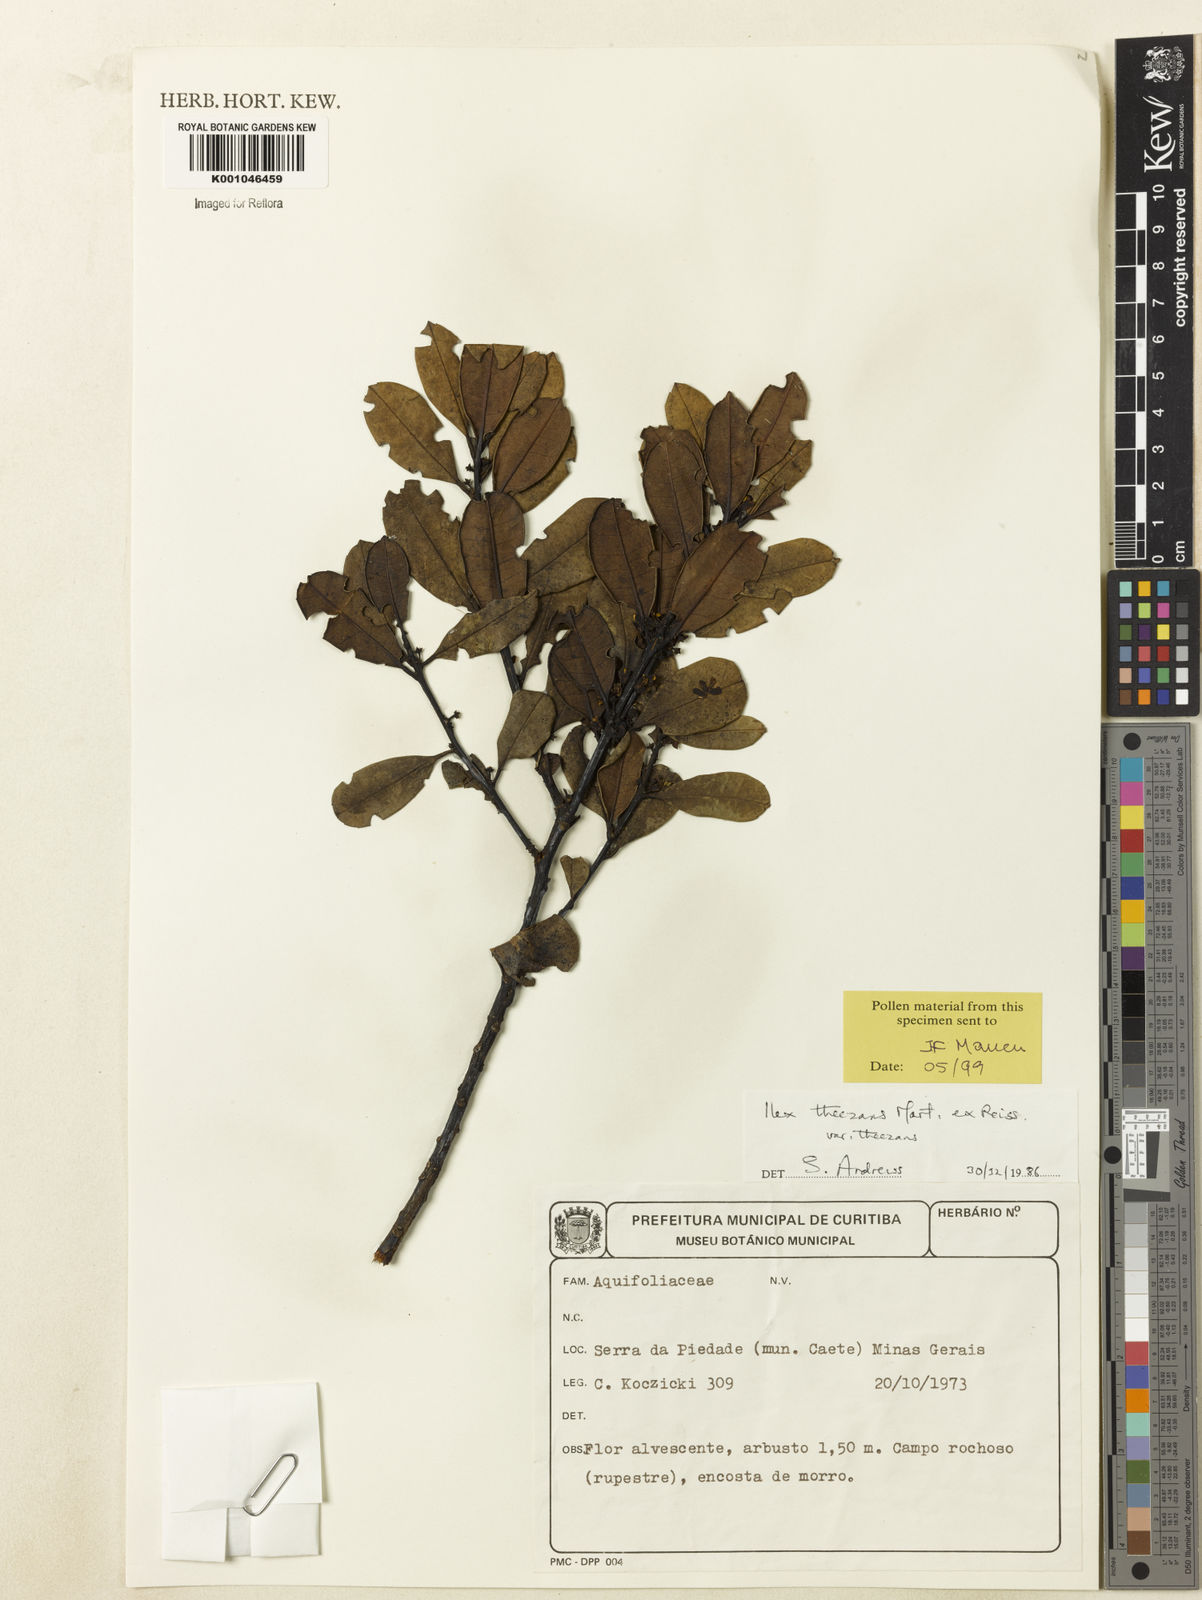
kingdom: Plantae
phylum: Tracheophyta
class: Magnoliopsida
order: Aquifoliales
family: Aquifoliaceae
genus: Ilex
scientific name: Ilex paraguariensis
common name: Paraguay tea
